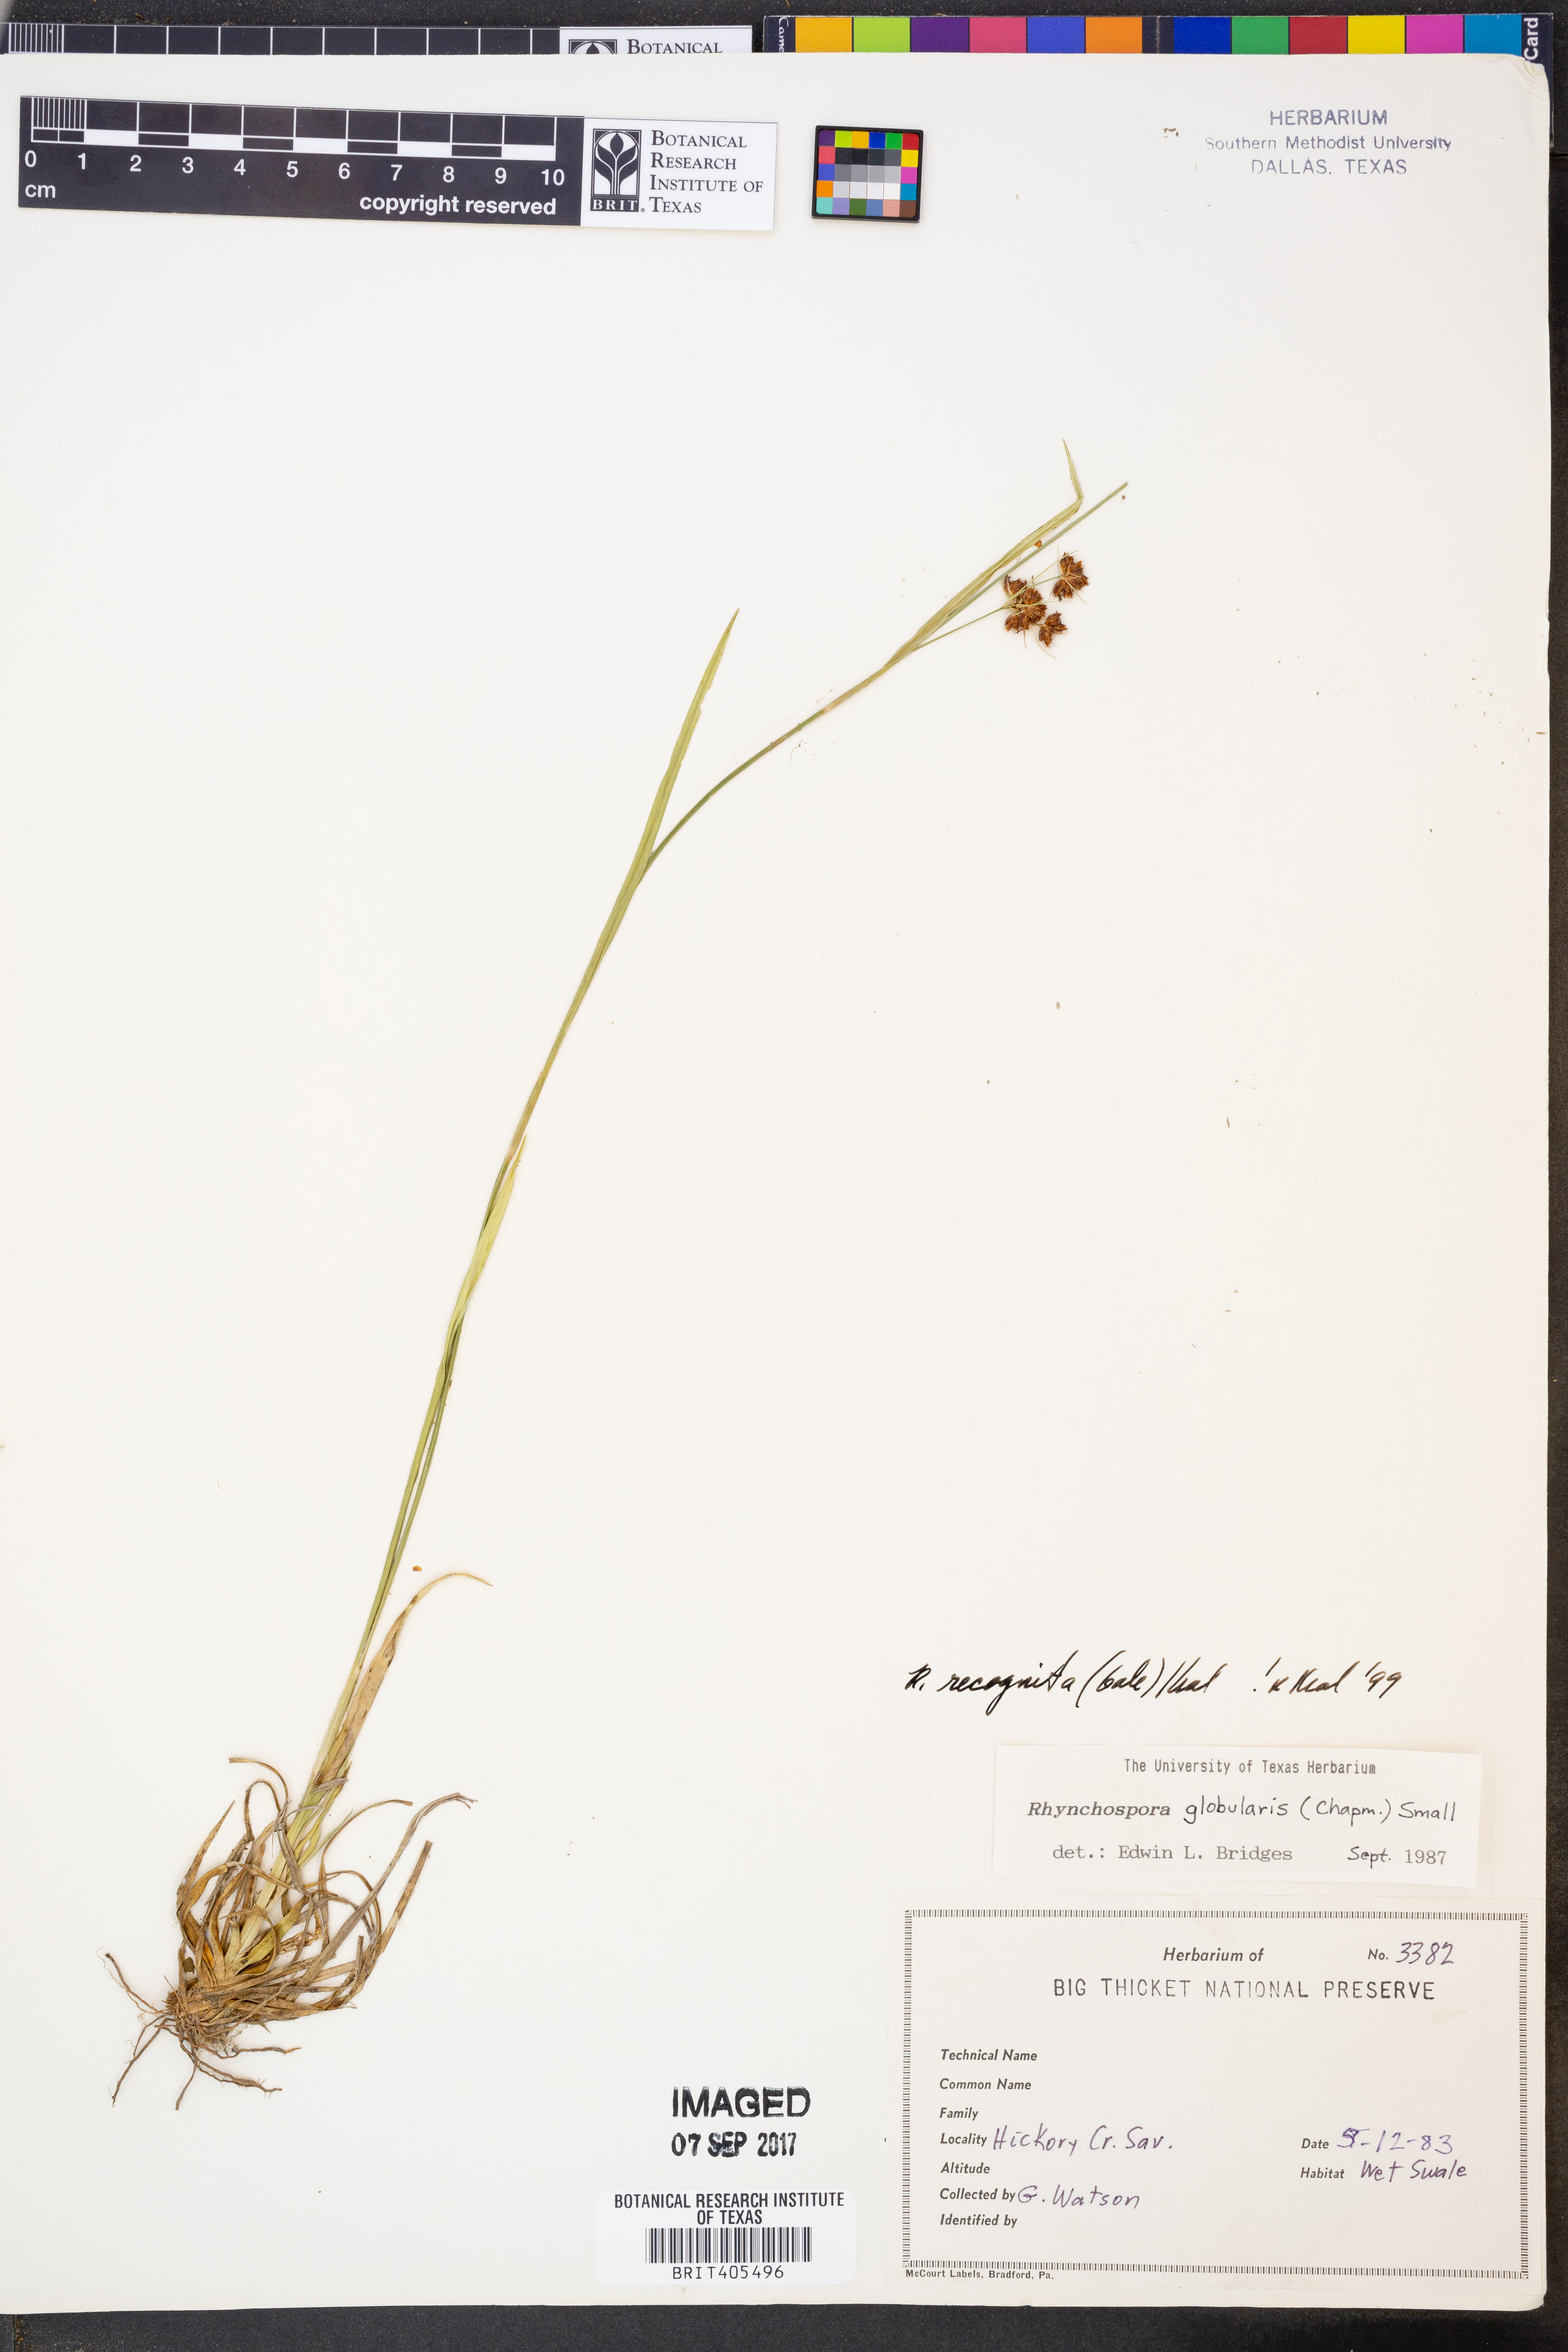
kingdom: Plantae
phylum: Tracheophyta
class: Liliopsida
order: Poales
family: Cyperaceae
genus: Rhynchospora
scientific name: Rhynchospora recognita
